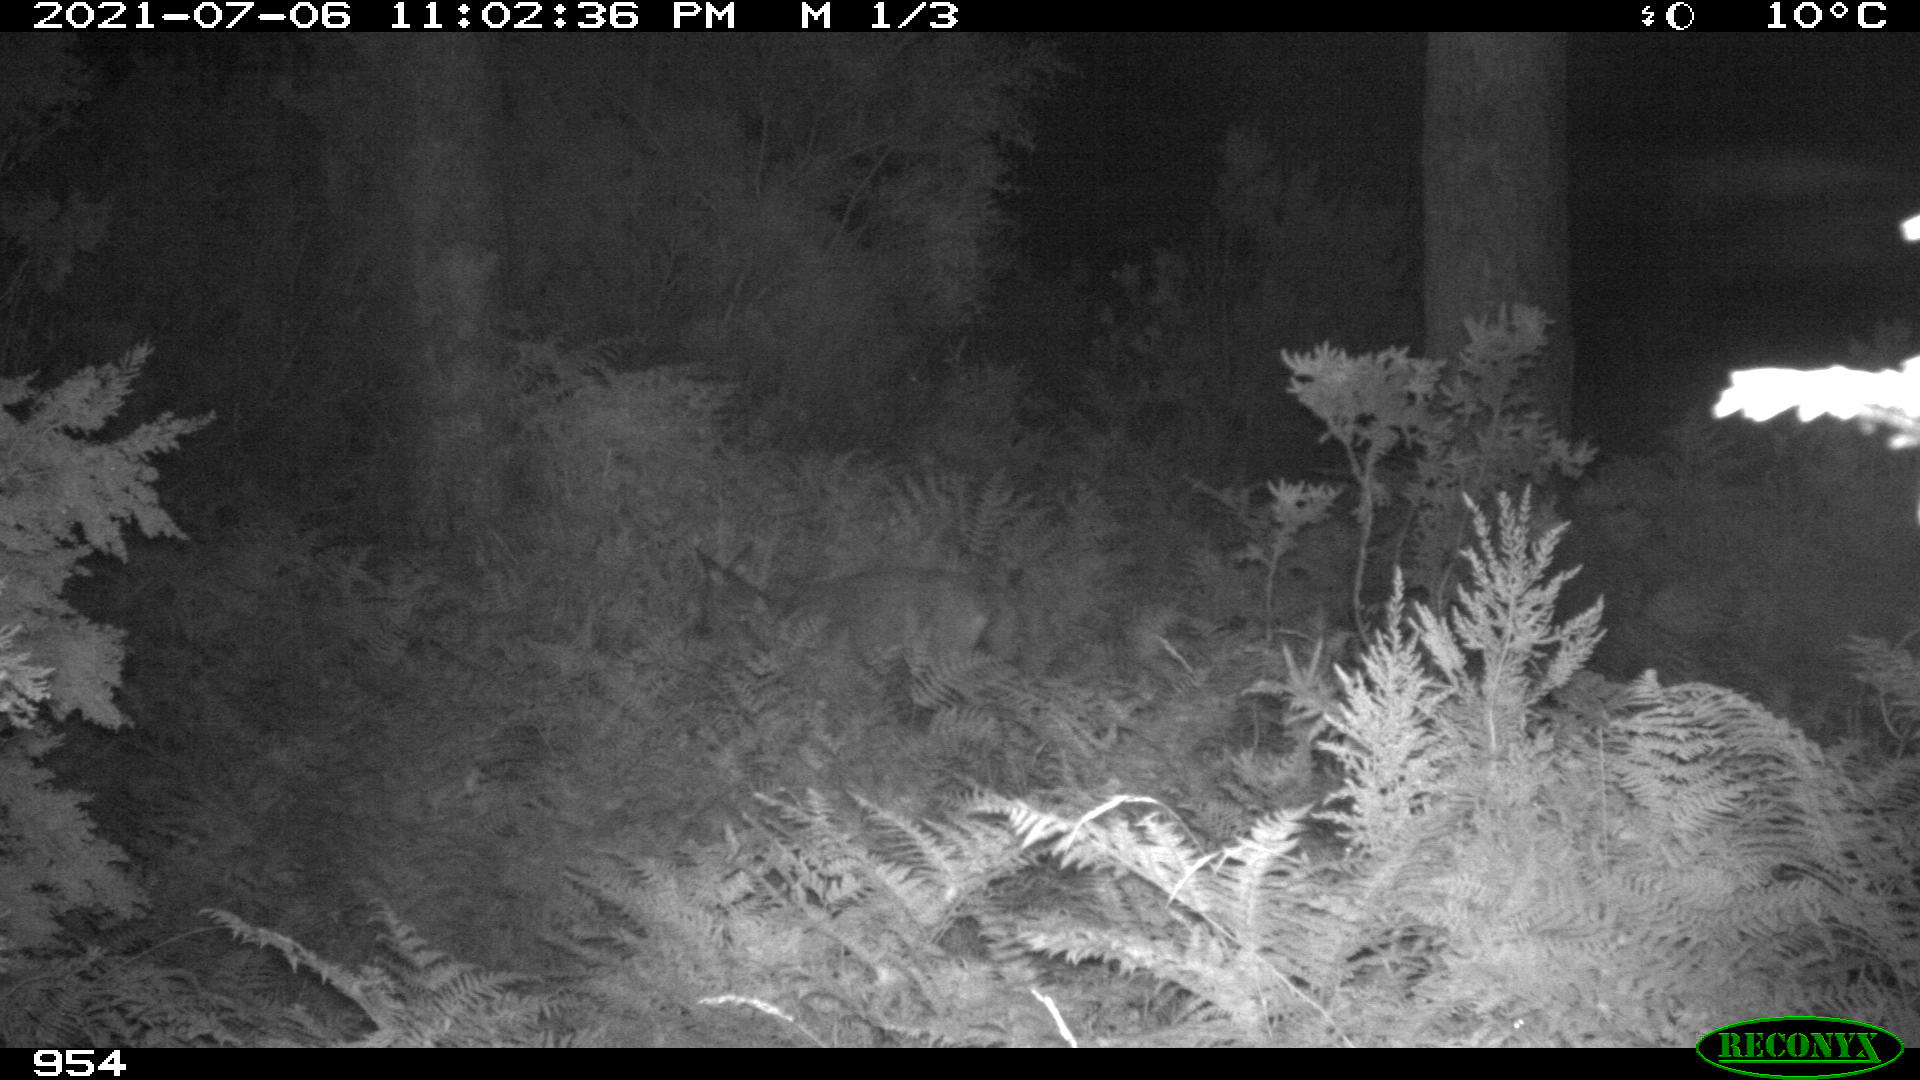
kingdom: Animalia
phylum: Chordata
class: Mammalia
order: Artiodactyla
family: Cervidae
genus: Capreolus
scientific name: Capreolus capreolus
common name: Western roe deer
